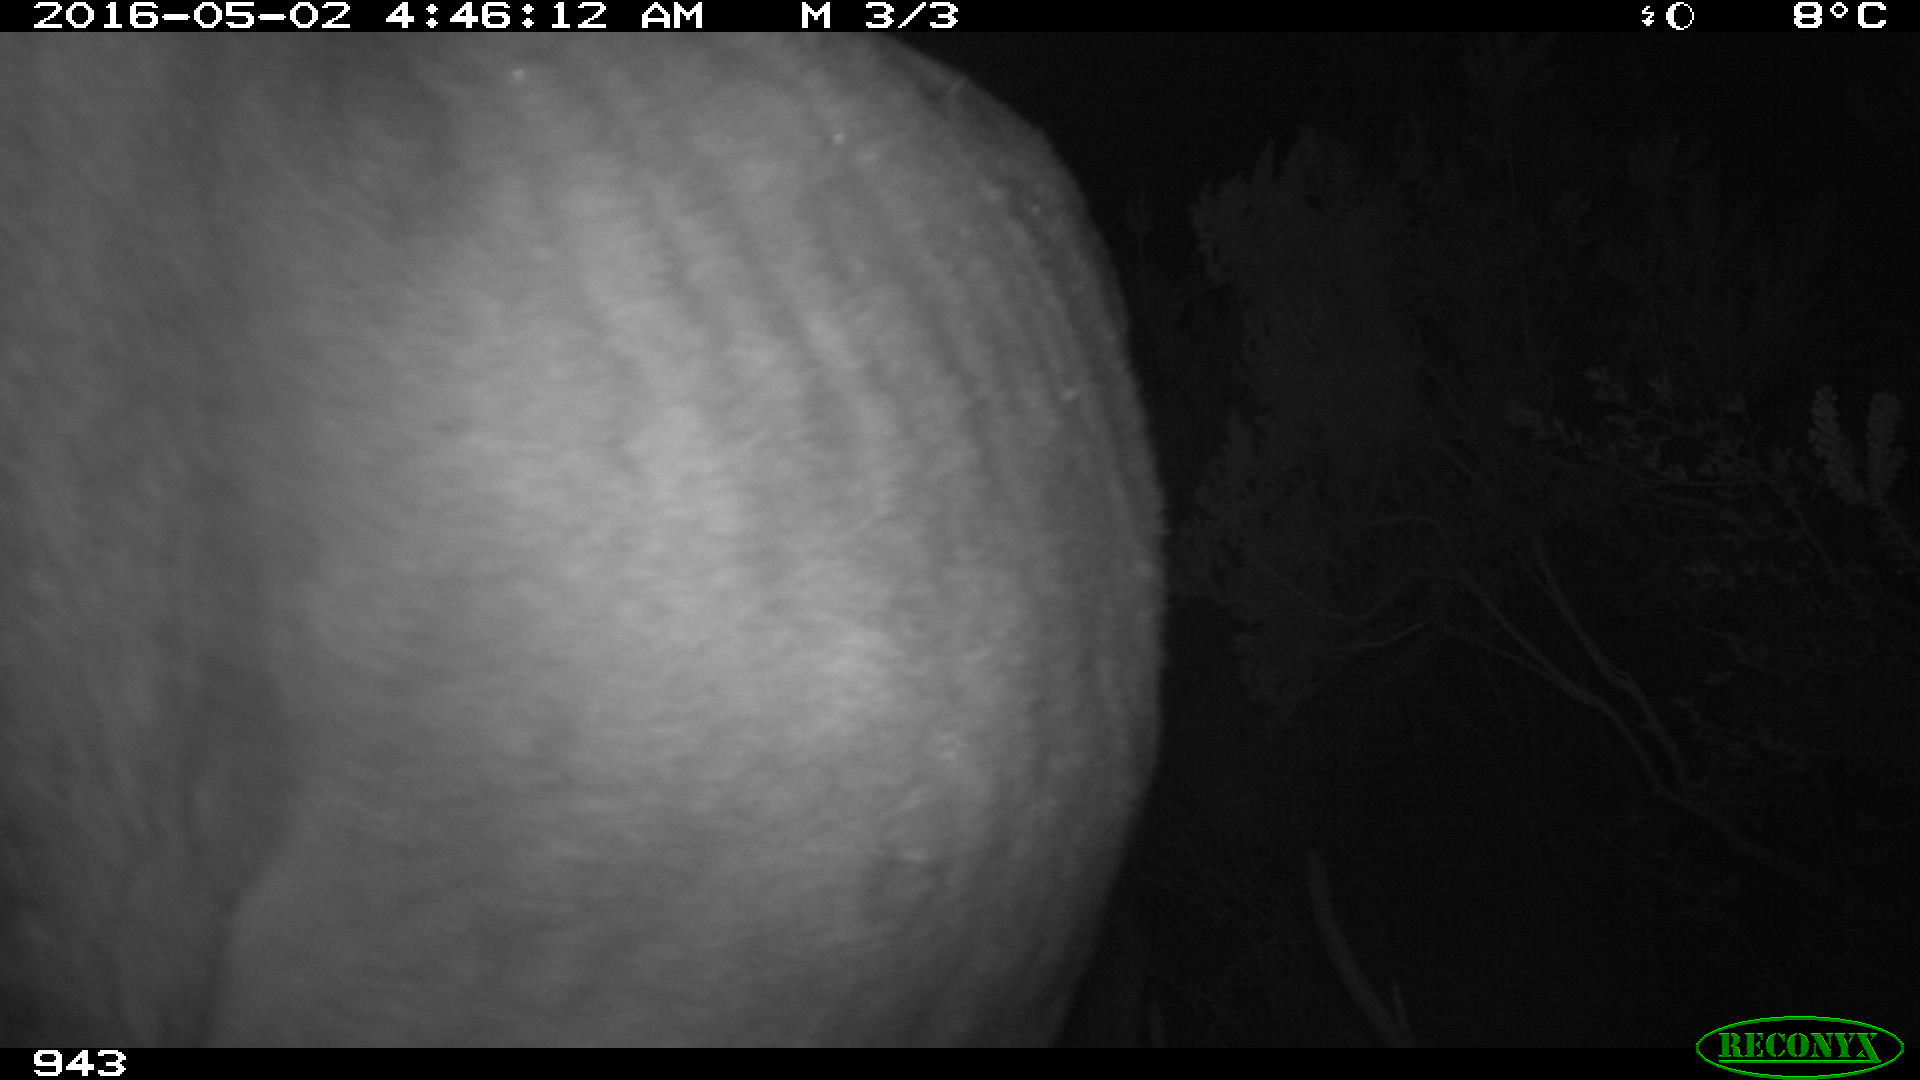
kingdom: Animalia
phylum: Chordata
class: Mammalia
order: Perissodactyla
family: Equidae
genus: Equus
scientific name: Equus caballus
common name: Horse
